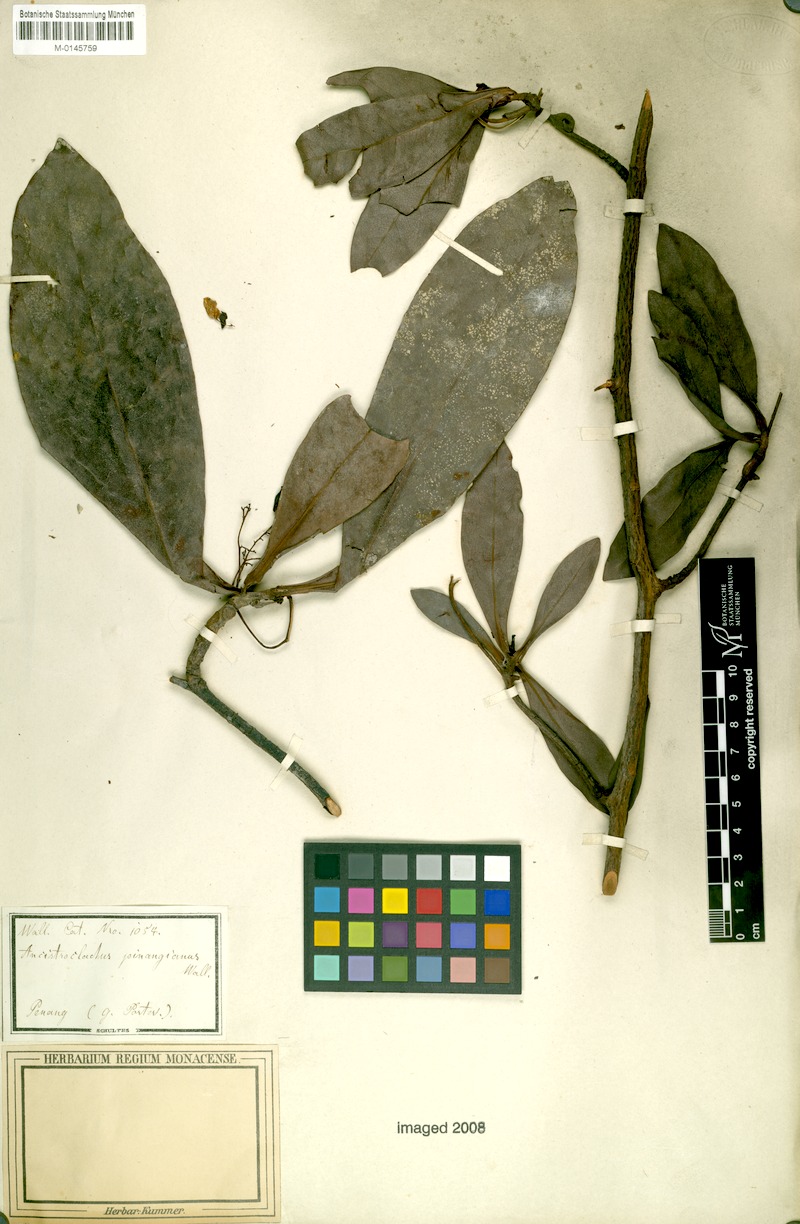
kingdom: Plantae
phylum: Tracheophyta
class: Magnoliopsida
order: Caryophyllales
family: Ancistrocladaceae
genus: Ancistrocladus
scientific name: Ancistrocladus tectorius
